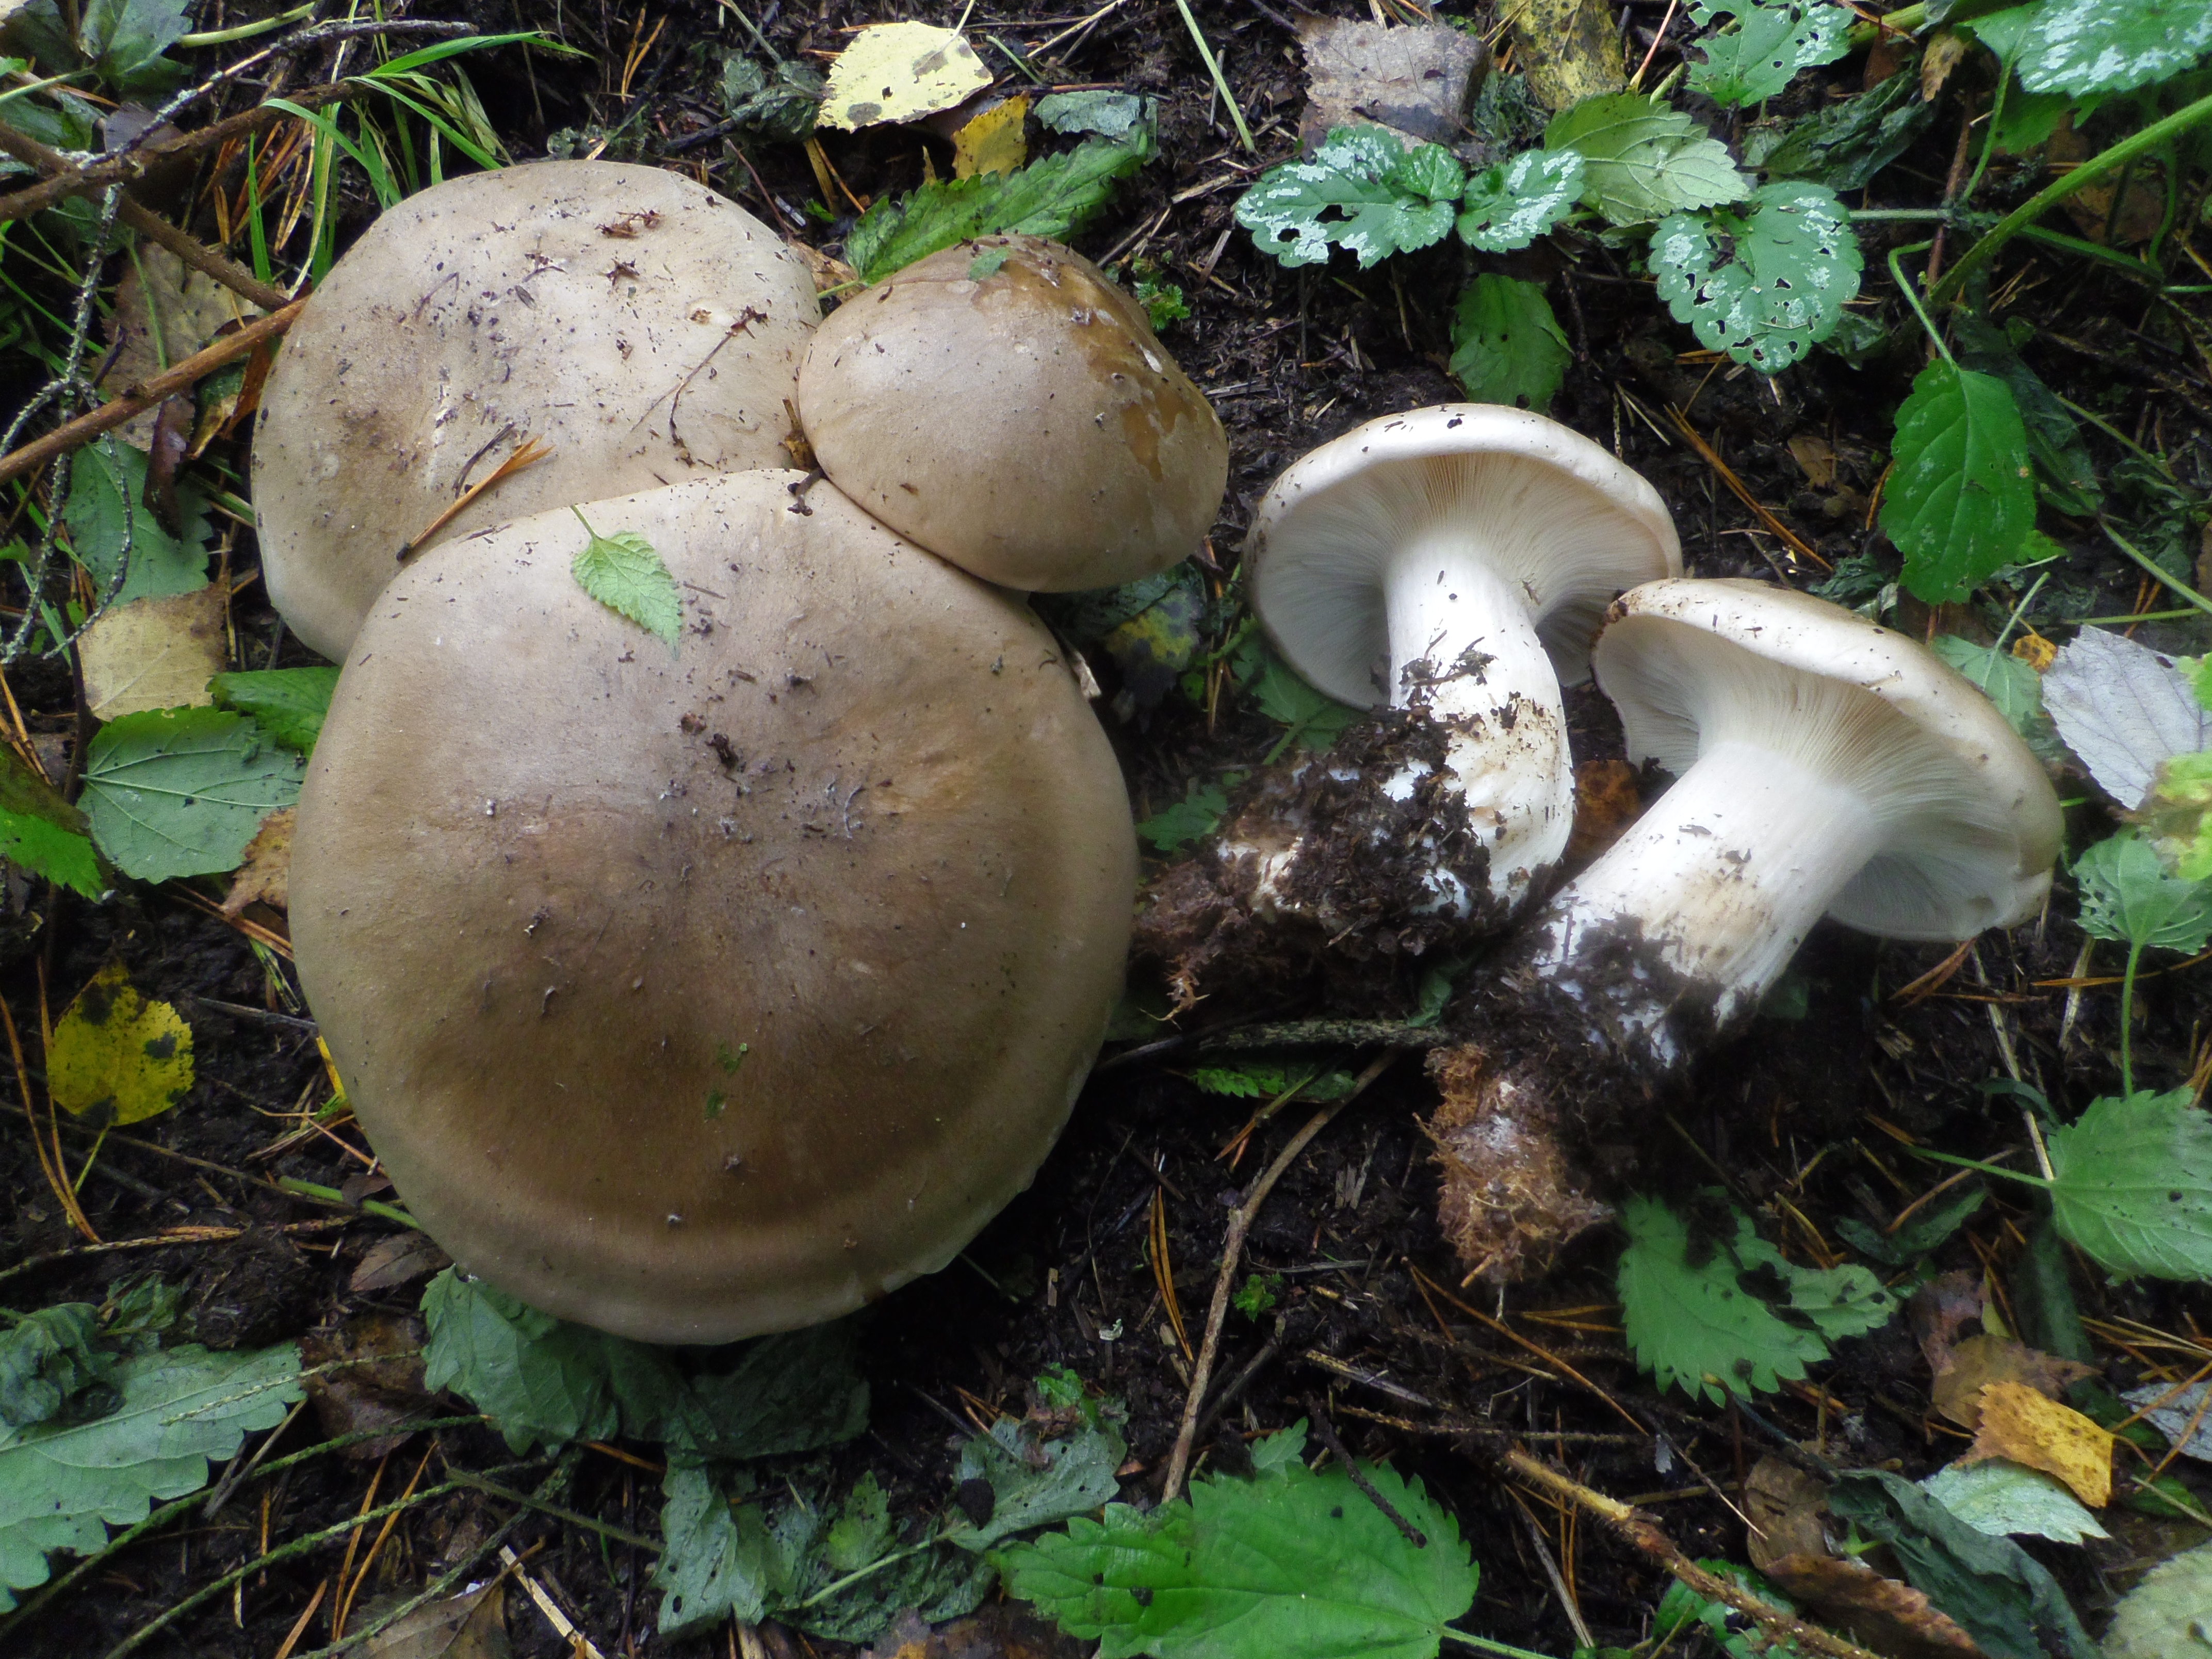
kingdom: Fungi
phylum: Basidiomycota
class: Agaricomycetes
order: Agaricales
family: Tricholomataceae
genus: Clitocybe
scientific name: Clitocybe nebularis
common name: Clouded agaric
